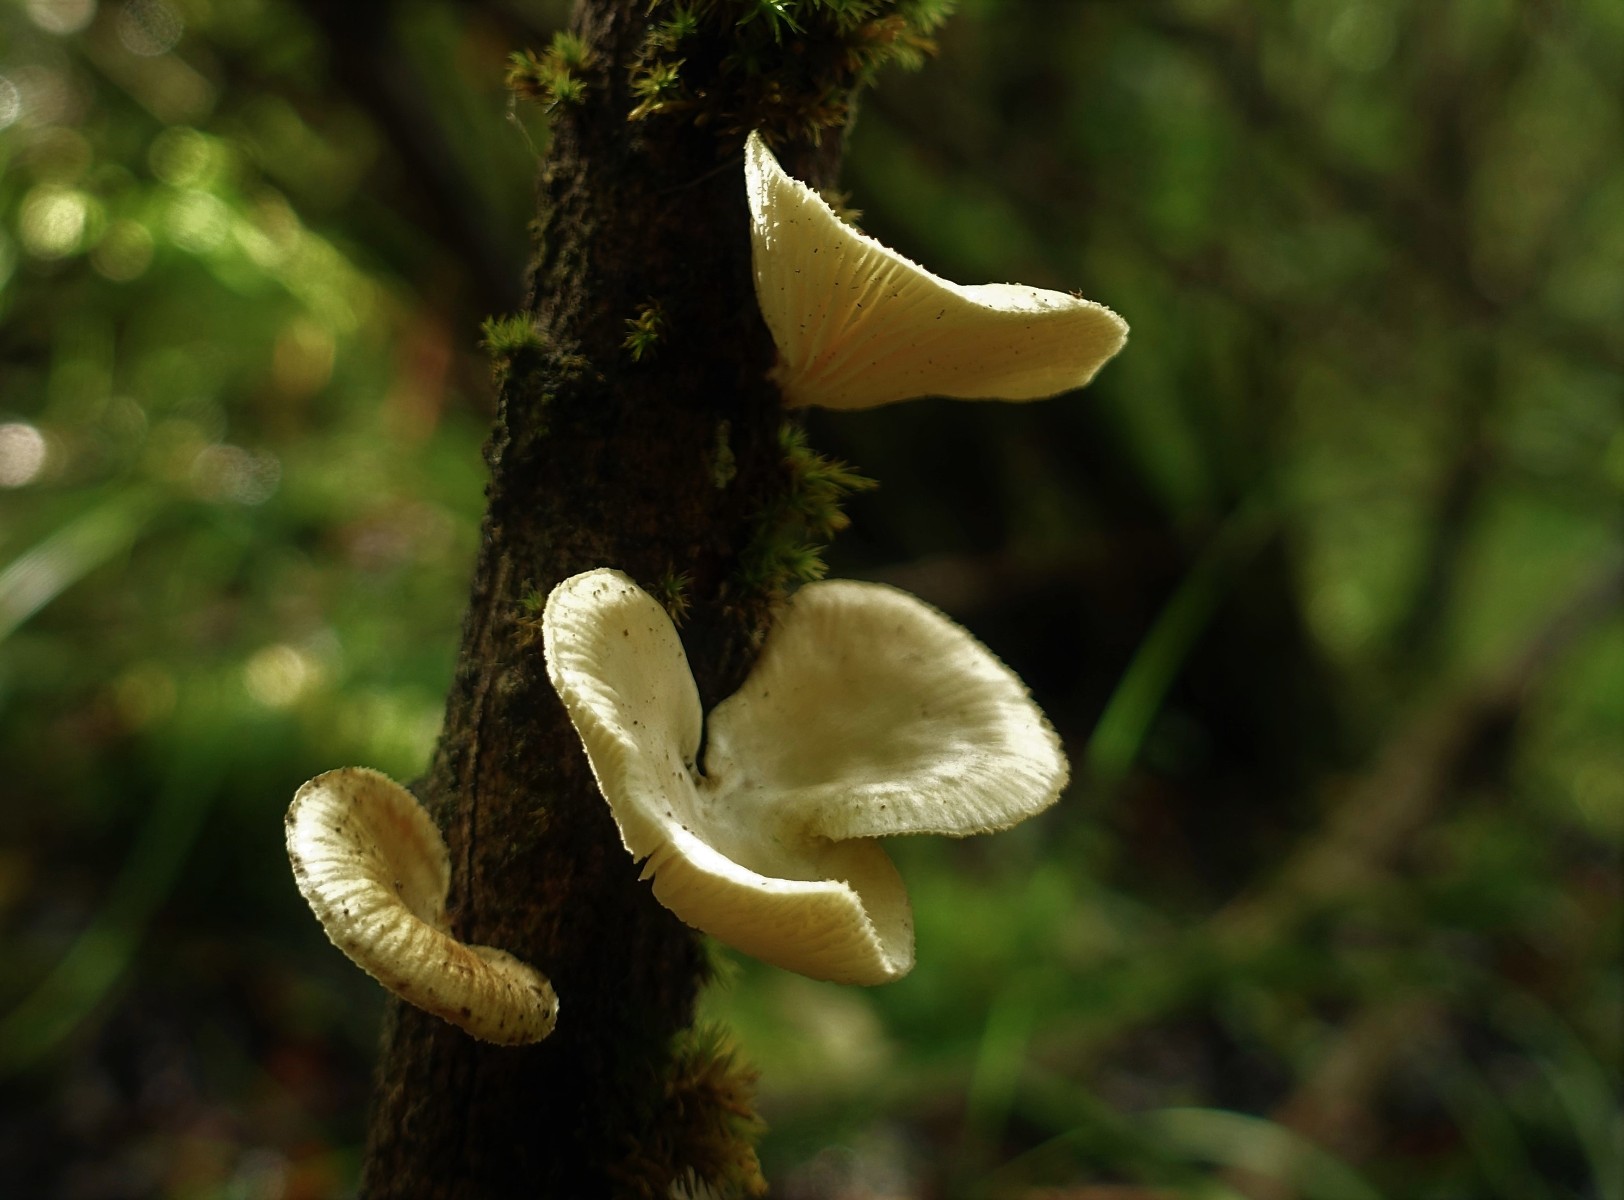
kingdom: Fungi
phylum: Basidiomycota
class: Agaricomycetes
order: Polyporales
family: Polyporaceae
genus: Neofavolus
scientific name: Neofavolus suavissimus
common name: anishat
